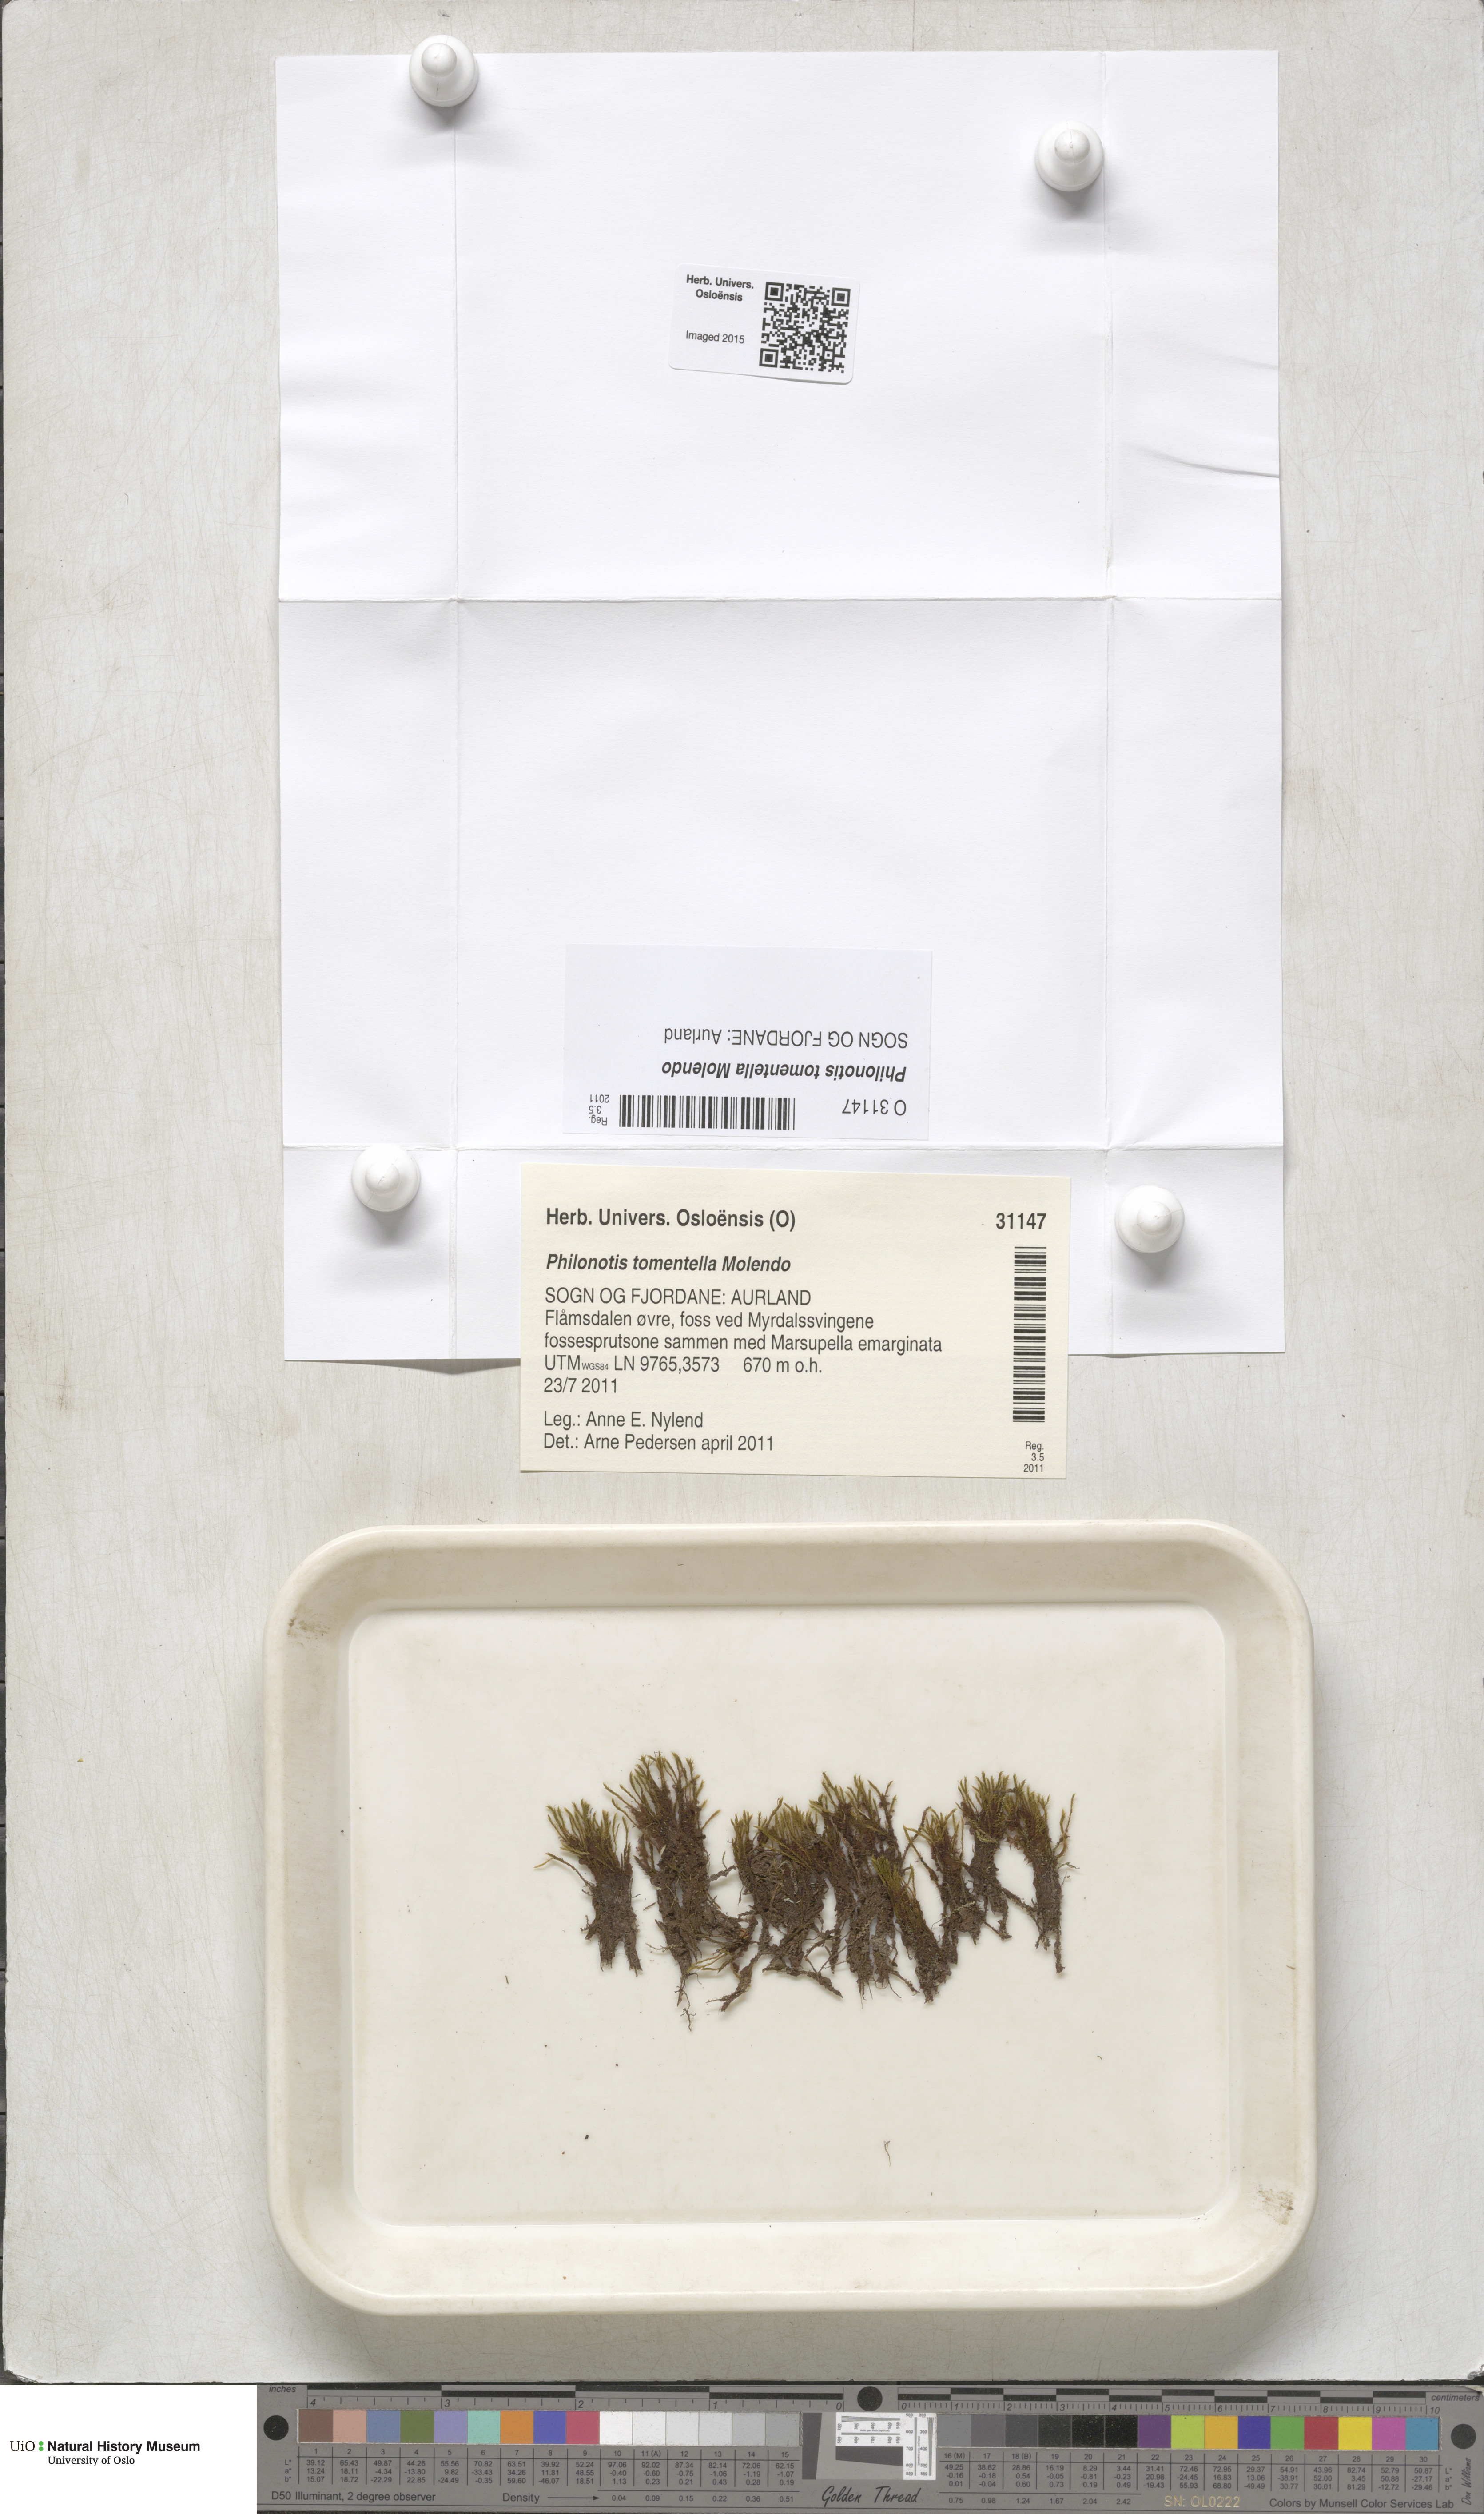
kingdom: Plantae
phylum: Bryophyta
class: Bryopsida
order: Bartramiales
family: Bartramiaceae
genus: Philonotis
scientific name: Philonotis tomentella
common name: Woolly apple moss
